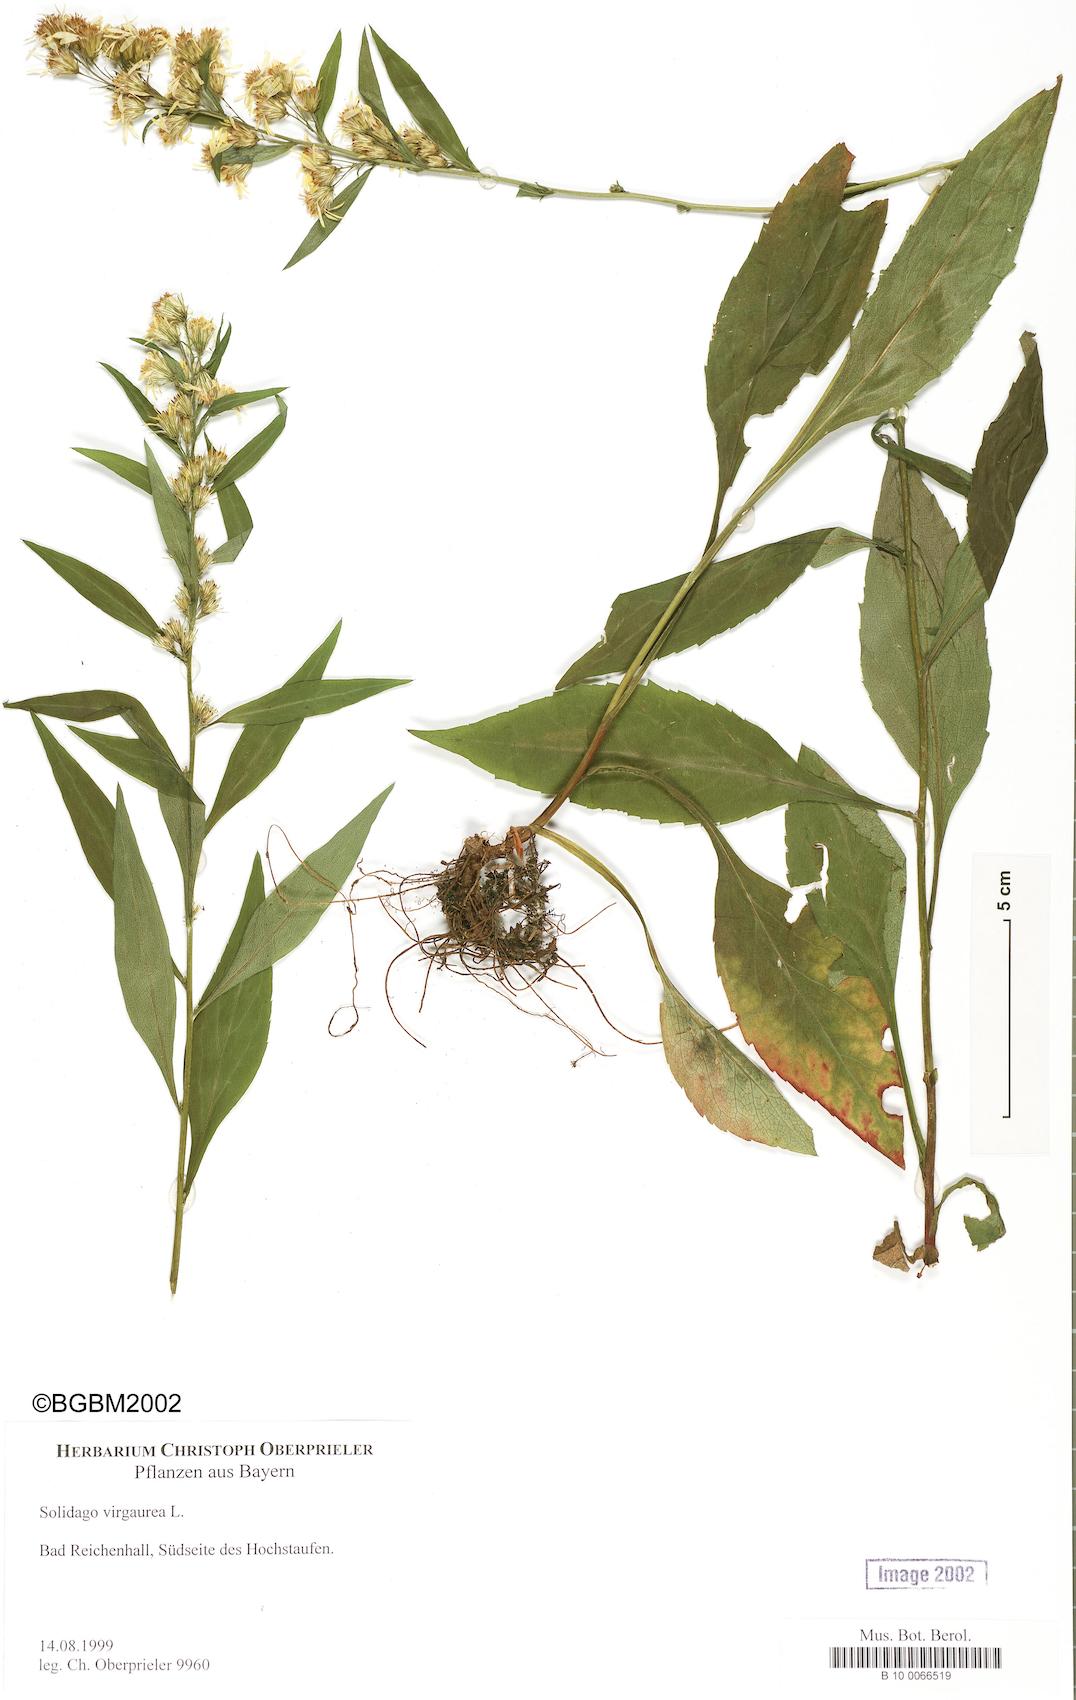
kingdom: Plantae
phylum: Tracheophyta
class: Magnoliopsida
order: Asterales
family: Asteraceae
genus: Solidago
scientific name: Solidago virgaurea
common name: Goldenrod
